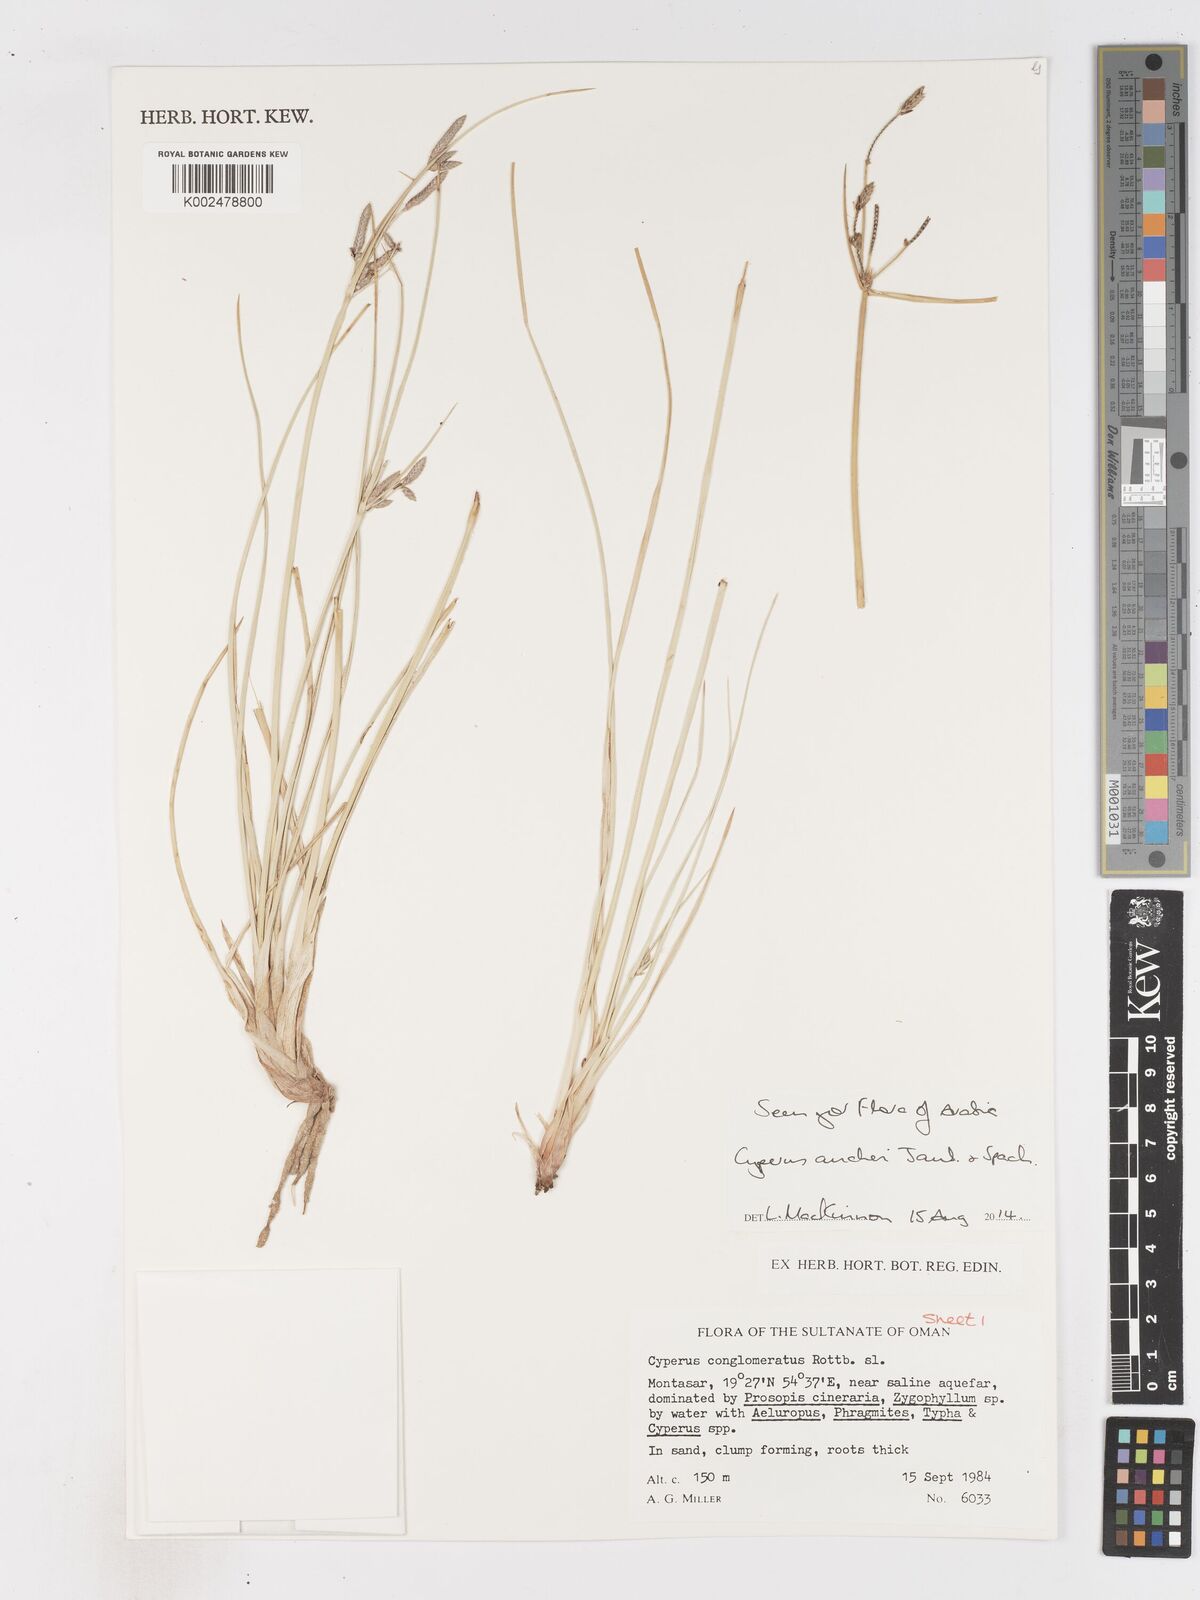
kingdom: Plantae
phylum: Tracheophyta
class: Liliopsida
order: Poales
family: Cyperaceae
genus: Cyperus
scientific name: Cyperus aucheri
